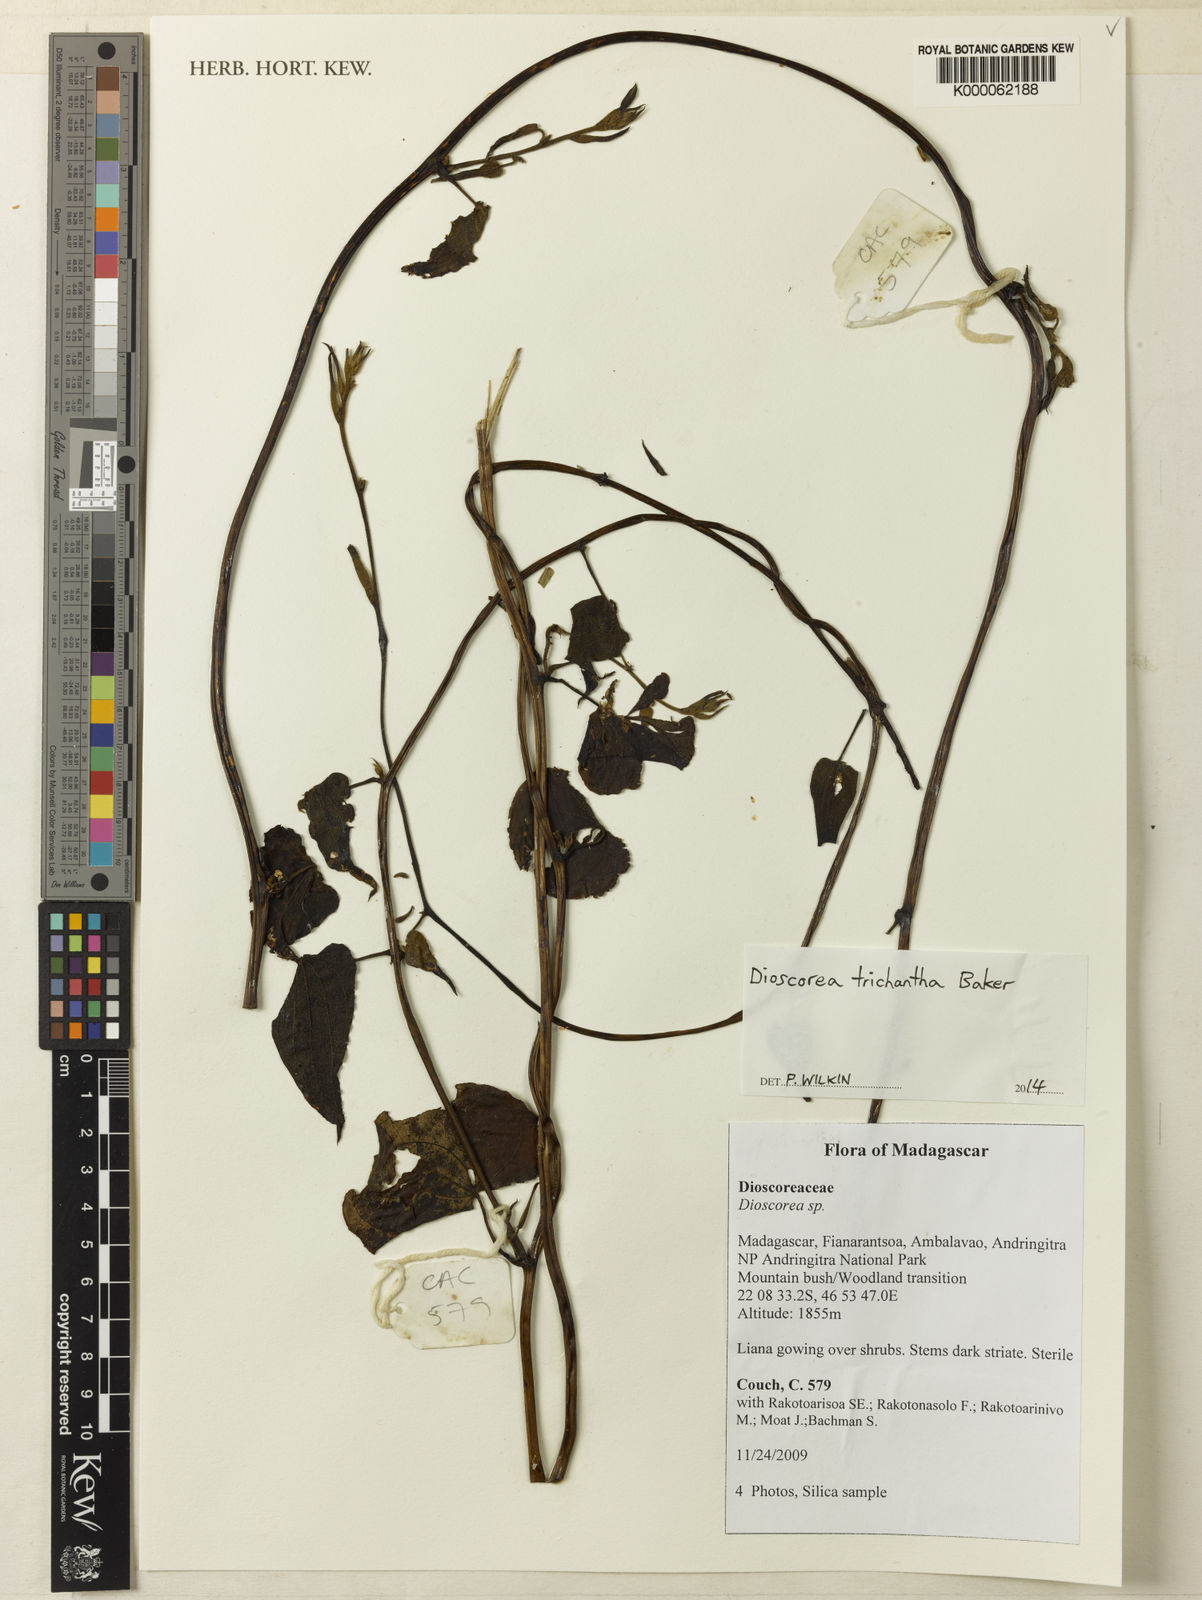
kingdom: Plantae
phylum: Tracheophyta
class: Liliopsida
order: Dioscoreales
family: Dioscoreaceae
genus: Dioscorea
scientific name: Dioscorea trichantha
